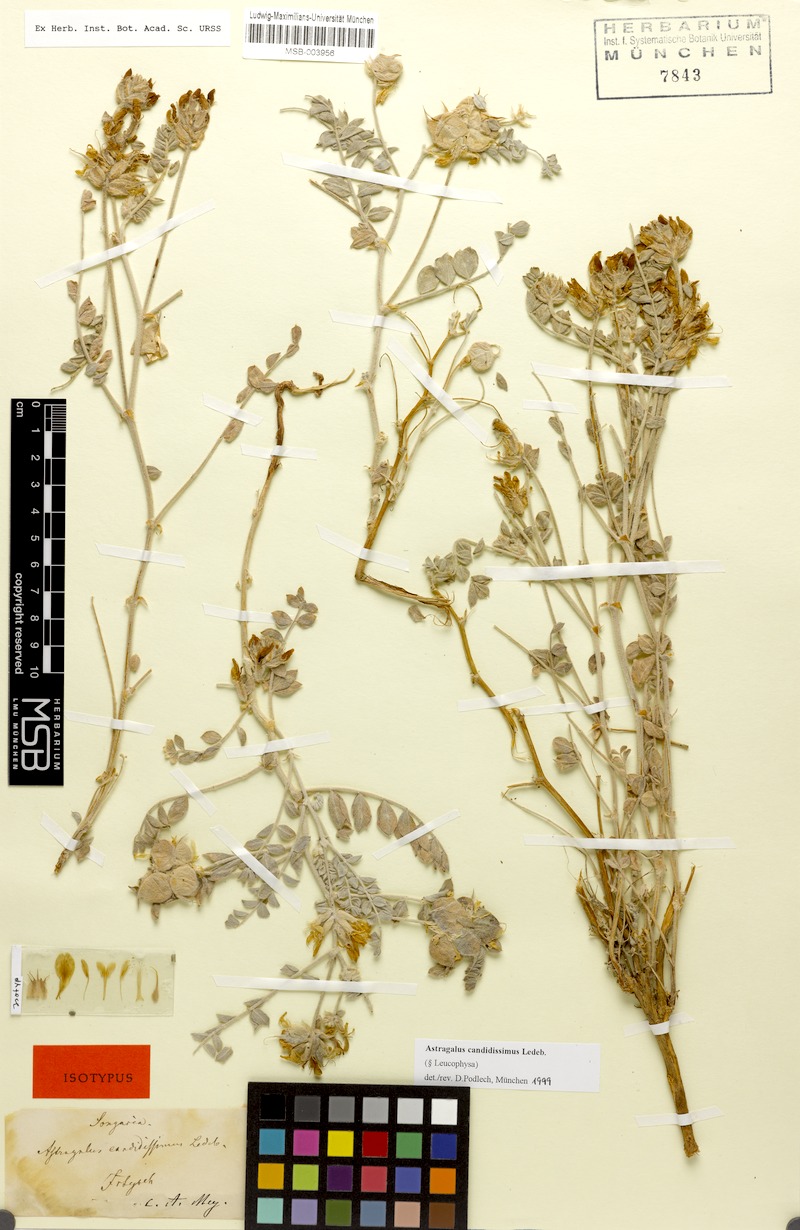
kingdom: Plantae
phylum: Tracheophyta
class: Magnoliopsida
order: Fabales
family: Fabaceae
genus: Astragalus
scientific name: Astragalus candidissimus
